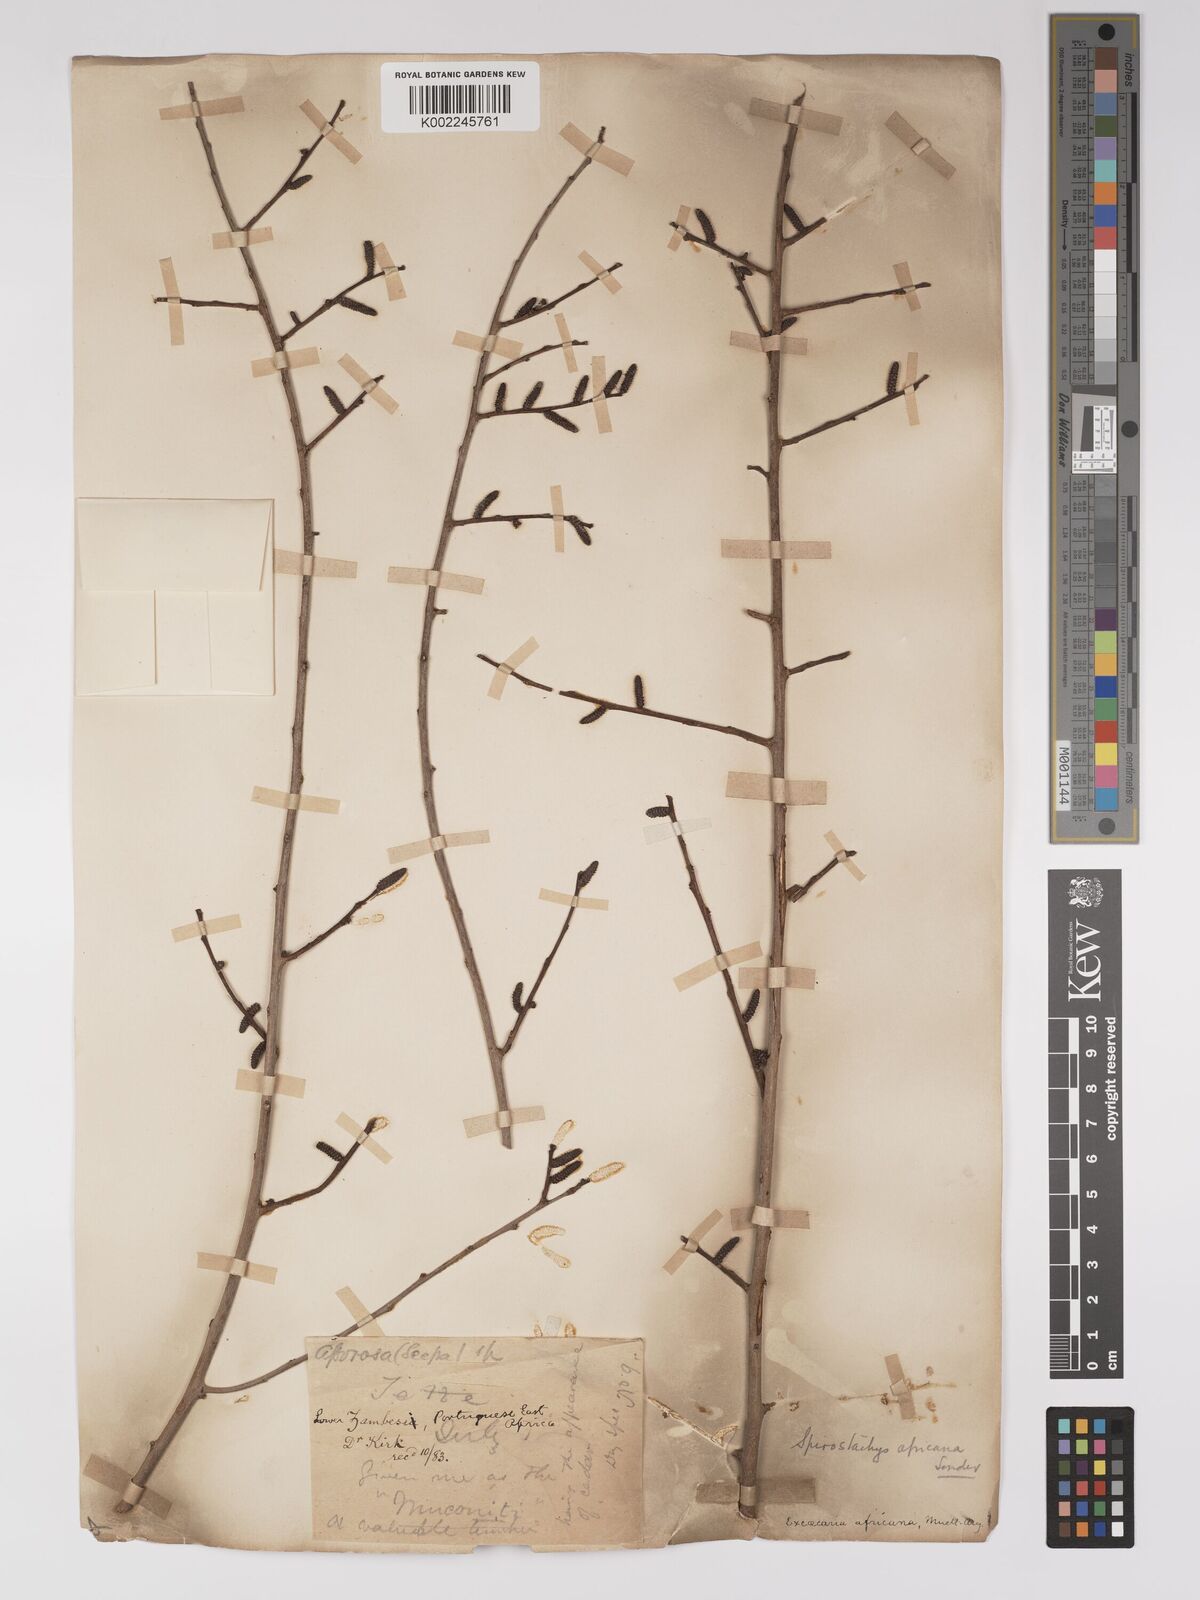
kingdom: Plantae
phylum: Tracheophyta
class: Magnoliopsida
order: Malpighiales
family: Euphorbiaceae
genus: Spirostachys
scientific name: Spirostachys africana
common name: Tamboti
